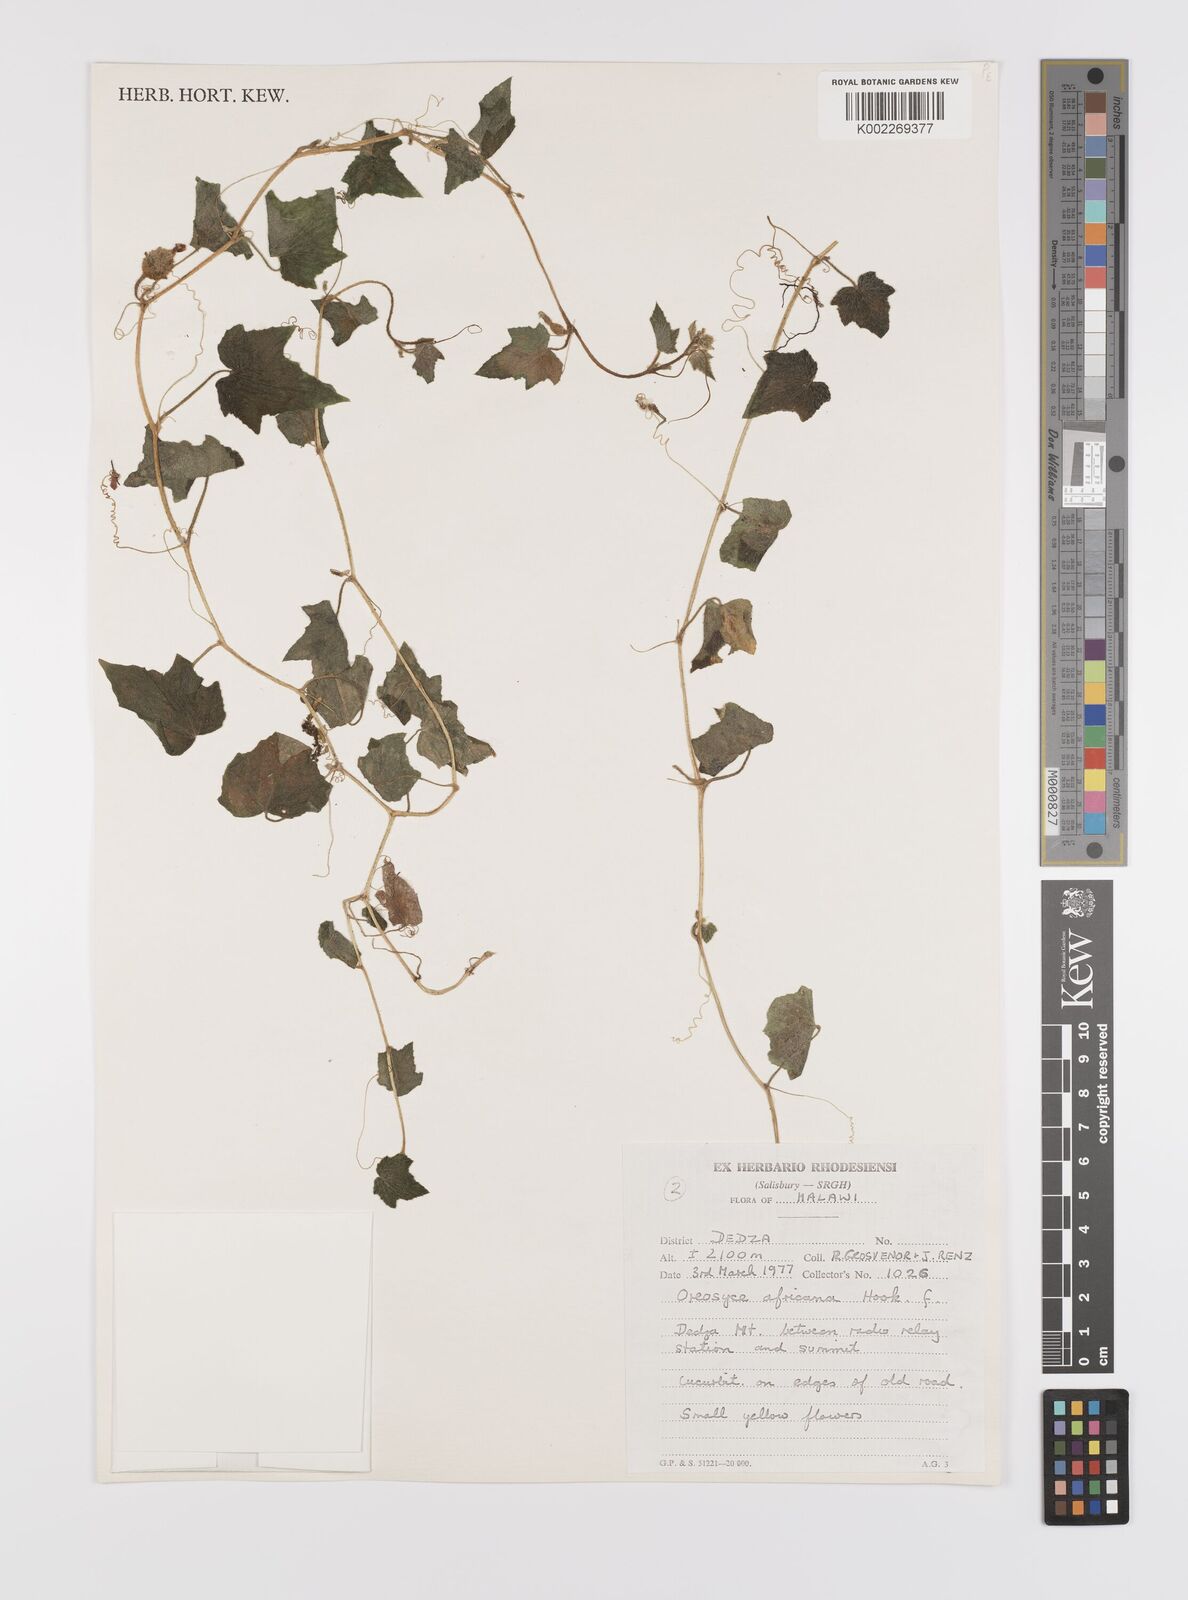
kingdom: Plantae
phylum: Tracheophyta
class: Magnoliopsida
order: Cucurbitales
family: Cucurbitaceae
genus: Cucumis
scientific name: Cucumis oreosyce
